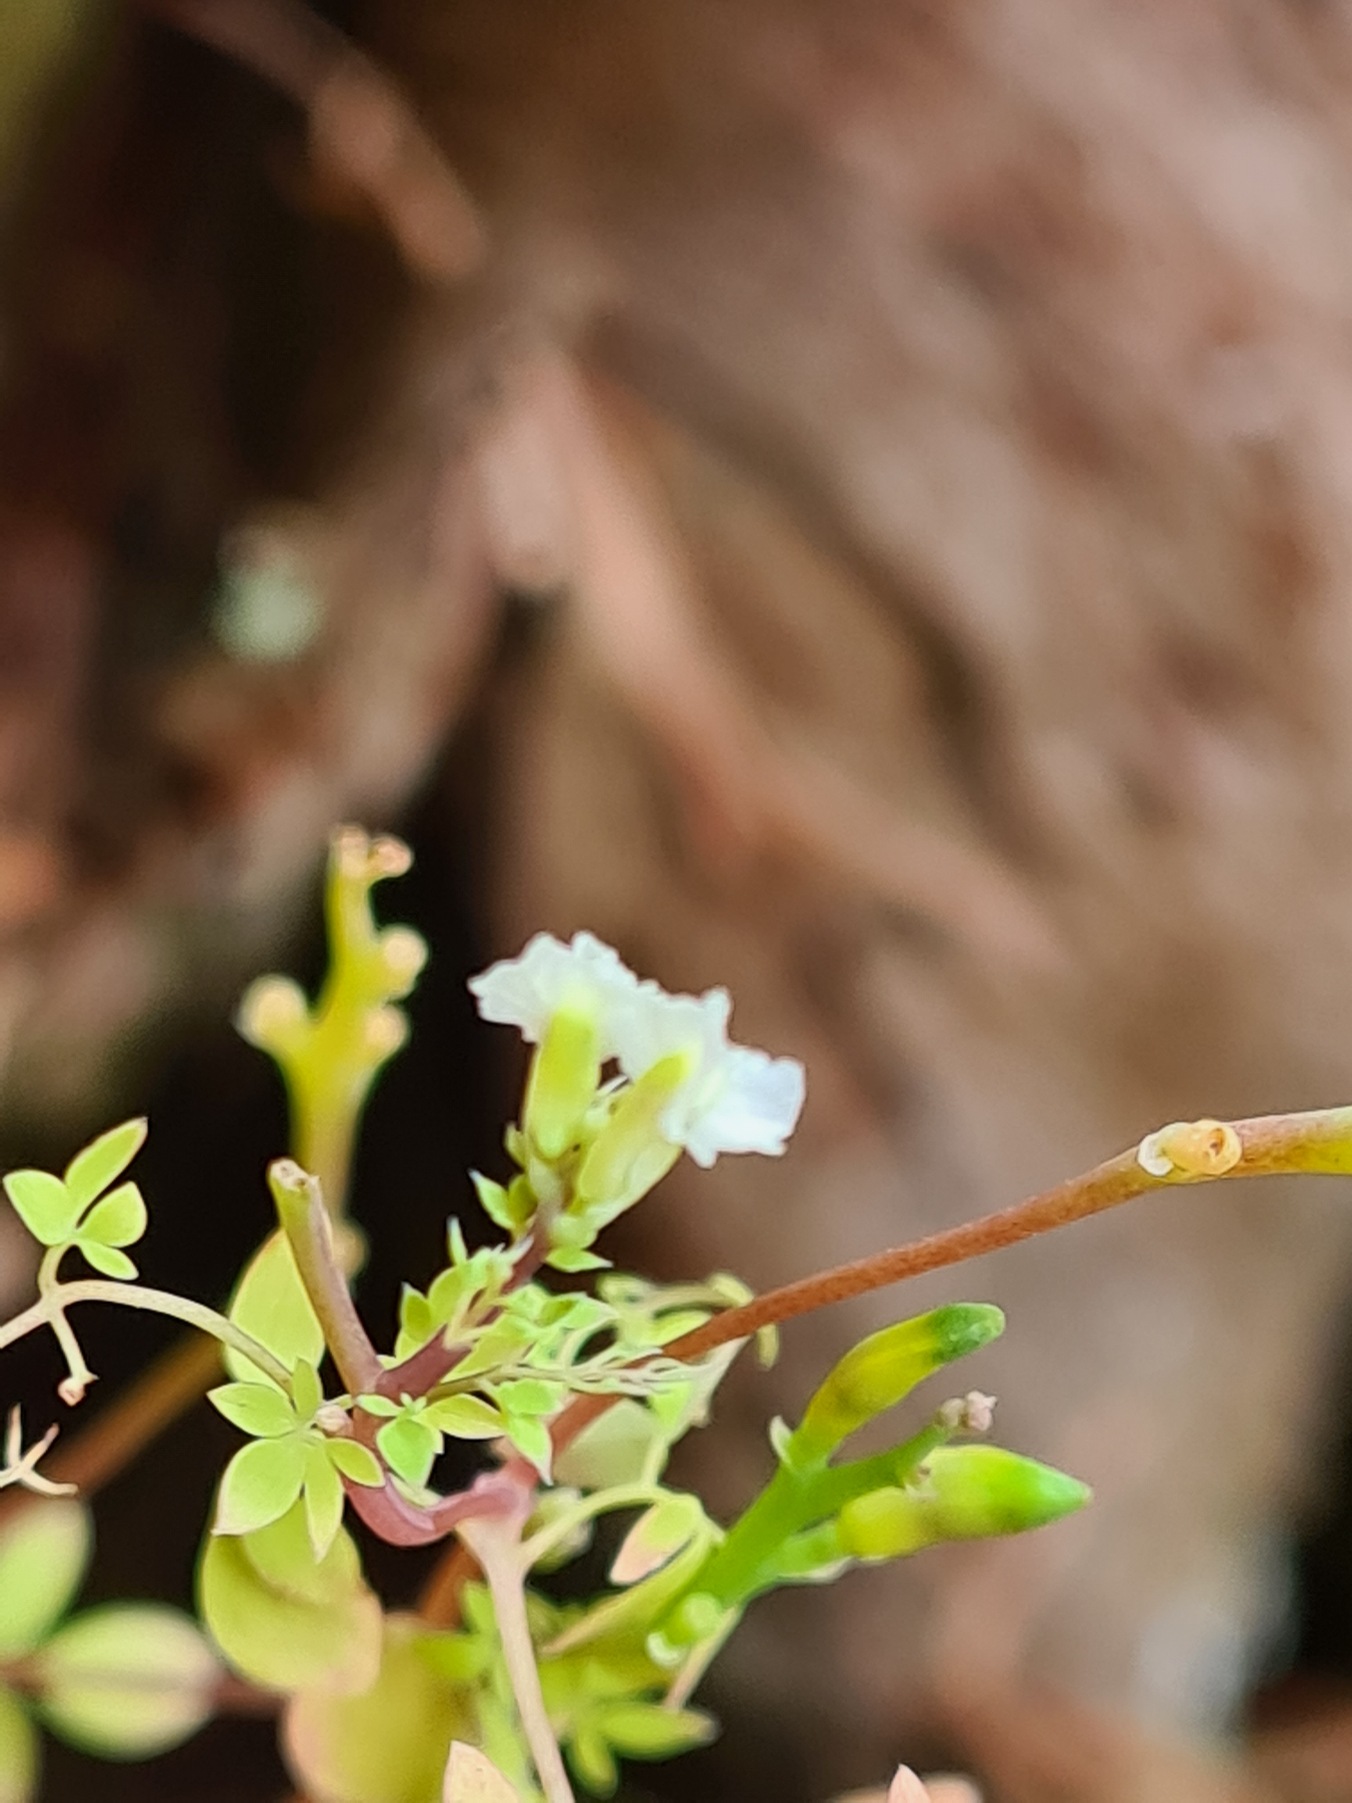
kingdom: Plantae
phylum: Tracheophyta
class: Magnoliopsida
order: Ranunculales
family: Papaveraceae
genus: Ceratocapnos
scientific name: Ceratocapnos claviculata
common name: Klatrende lærkespore
